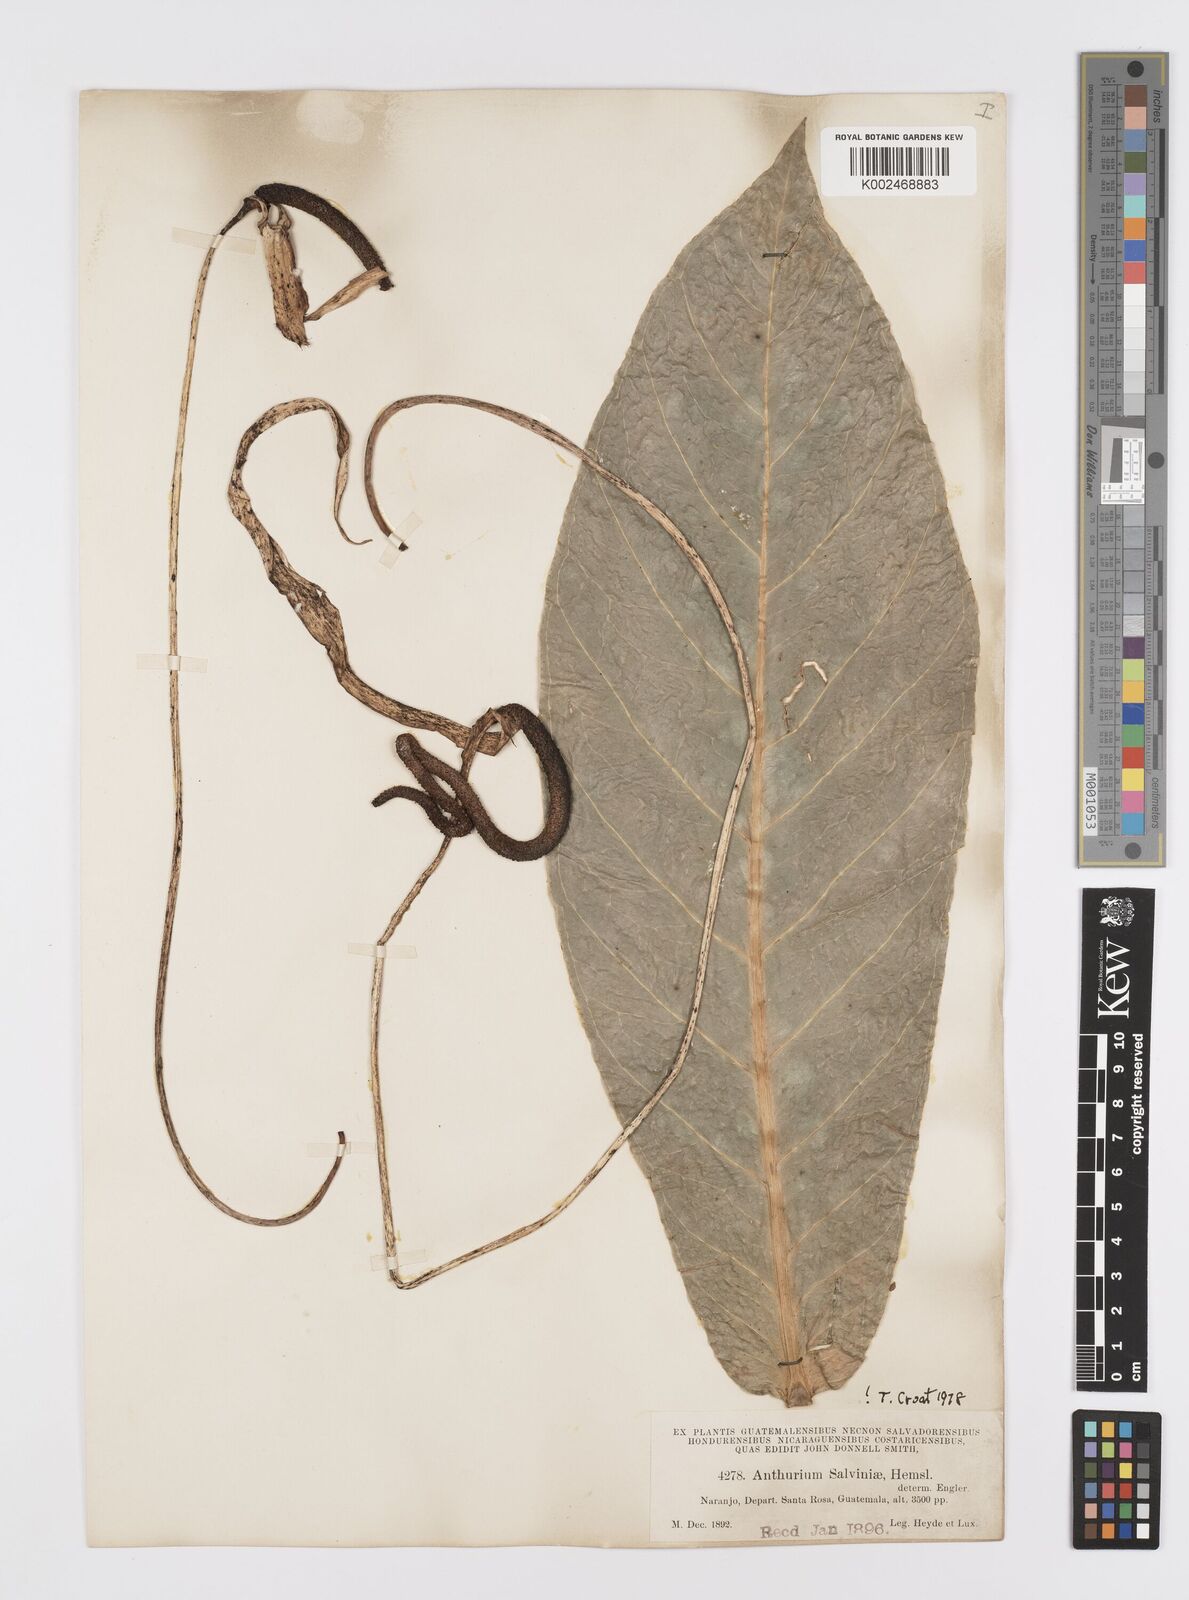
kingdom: Plantae
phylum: Tracheophyta
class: Liliopsida
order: Alismatales
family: Araceae
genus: Anthurium
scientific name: Anthurium salvinii
